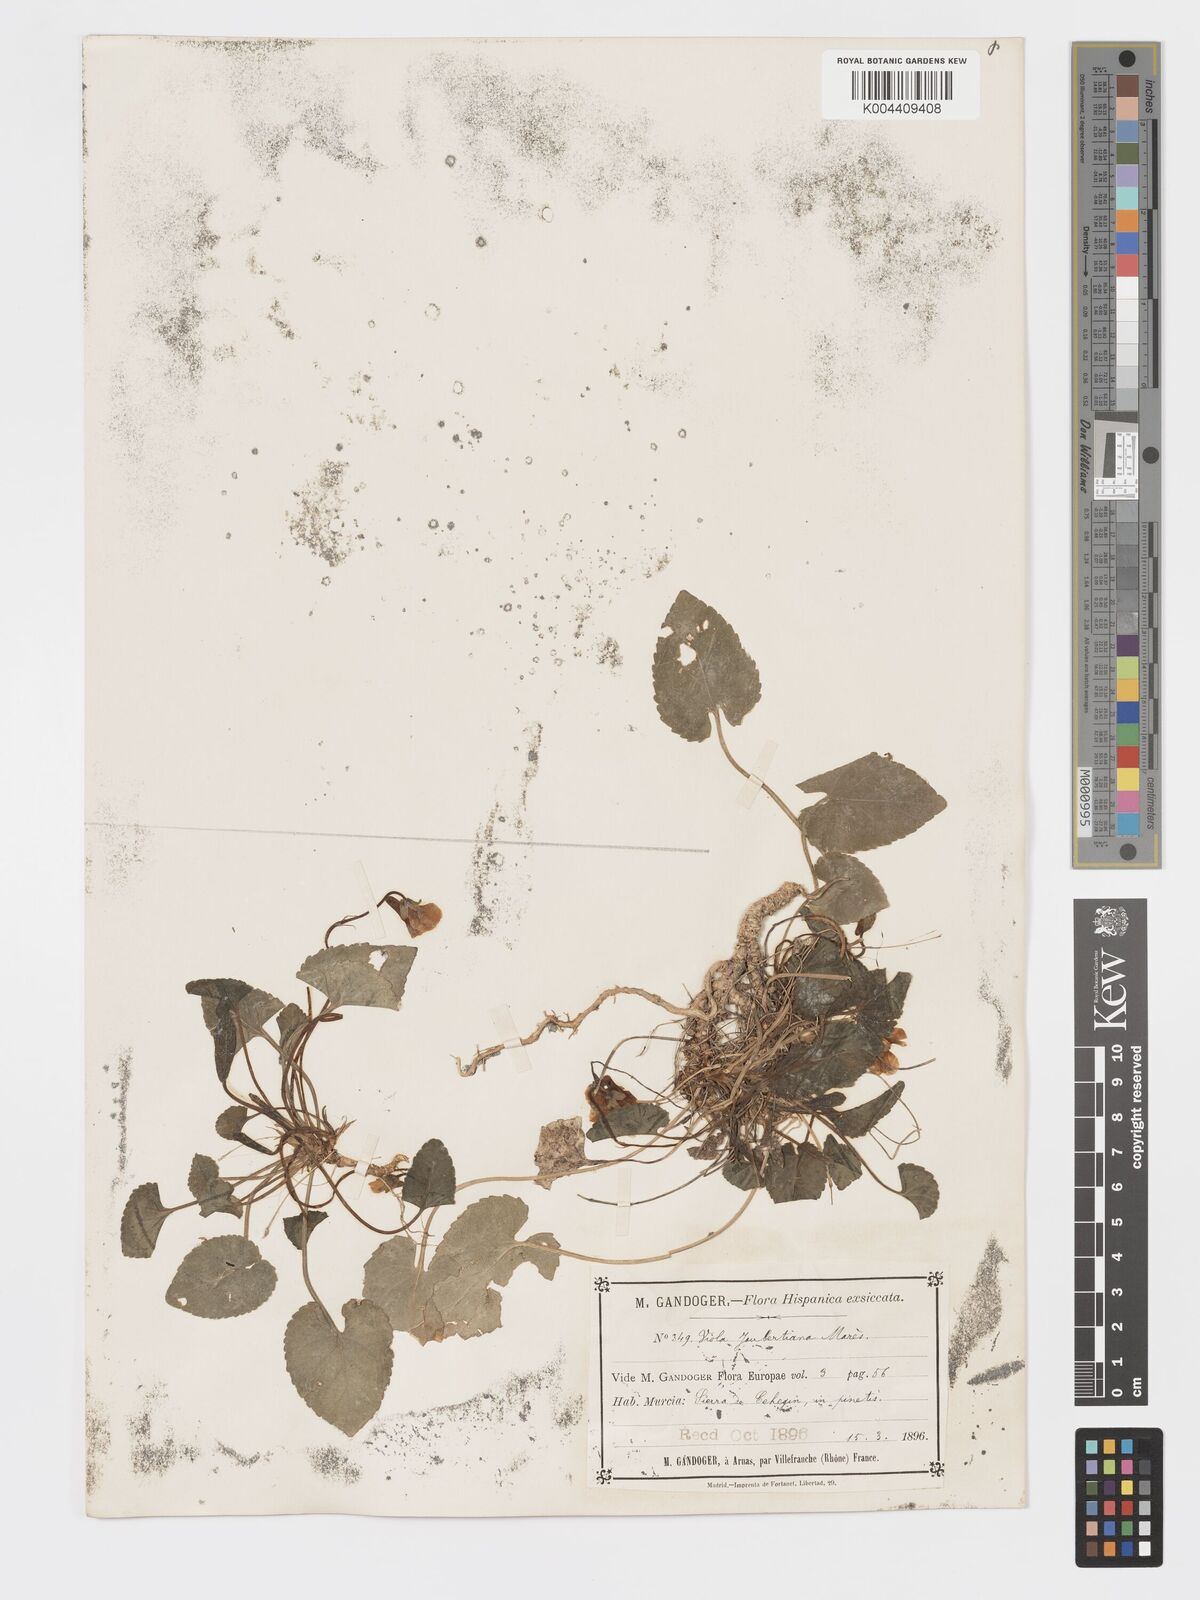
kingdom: Plantae
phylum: Tracheophyta
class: Magnoliopsida
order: Malpighiales
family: Violaceae
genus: Viola
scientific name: Viola alba
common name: White violet
